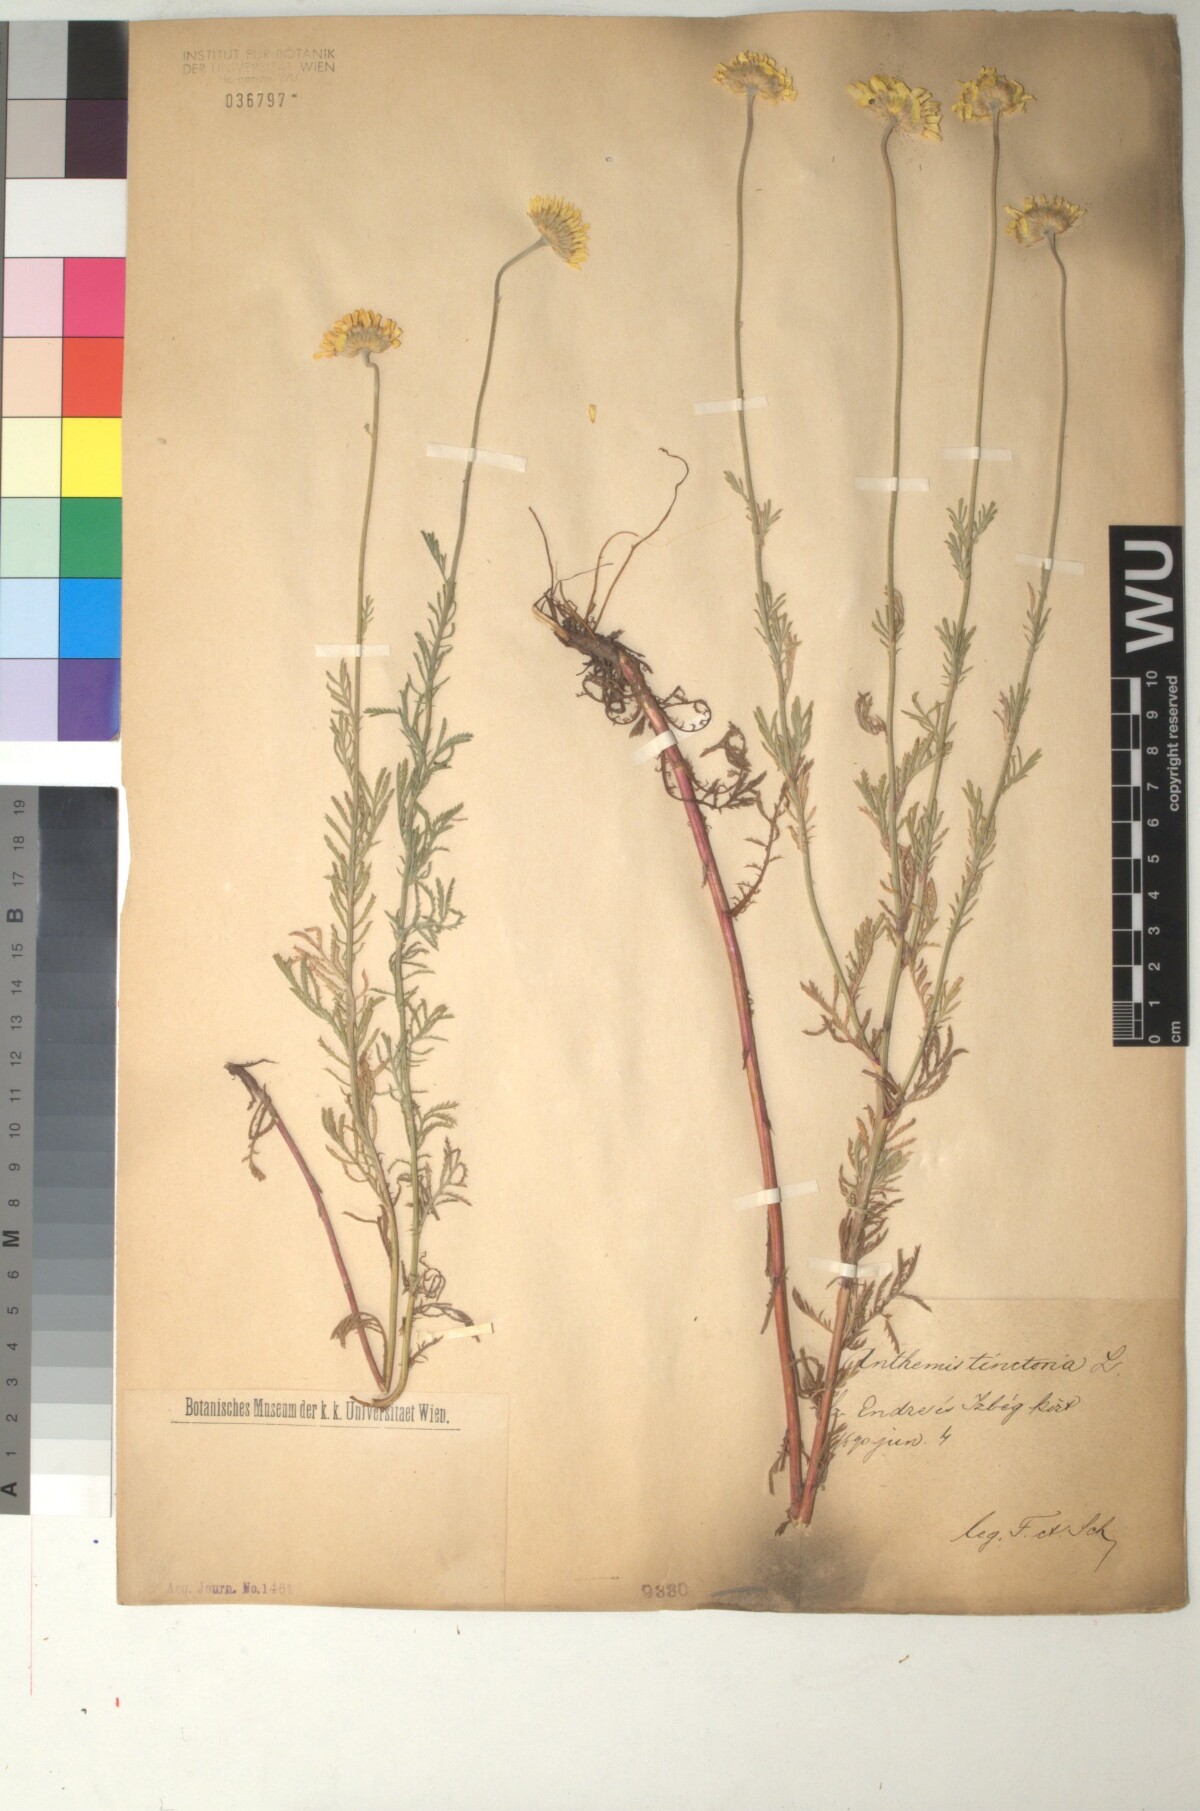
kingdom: Plantae
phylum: Tracheophyta
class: Magnoliopsida
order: Asterales
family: Asteraceae
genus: Cota
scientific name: Cota tinctoria
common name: Golden chamomile
